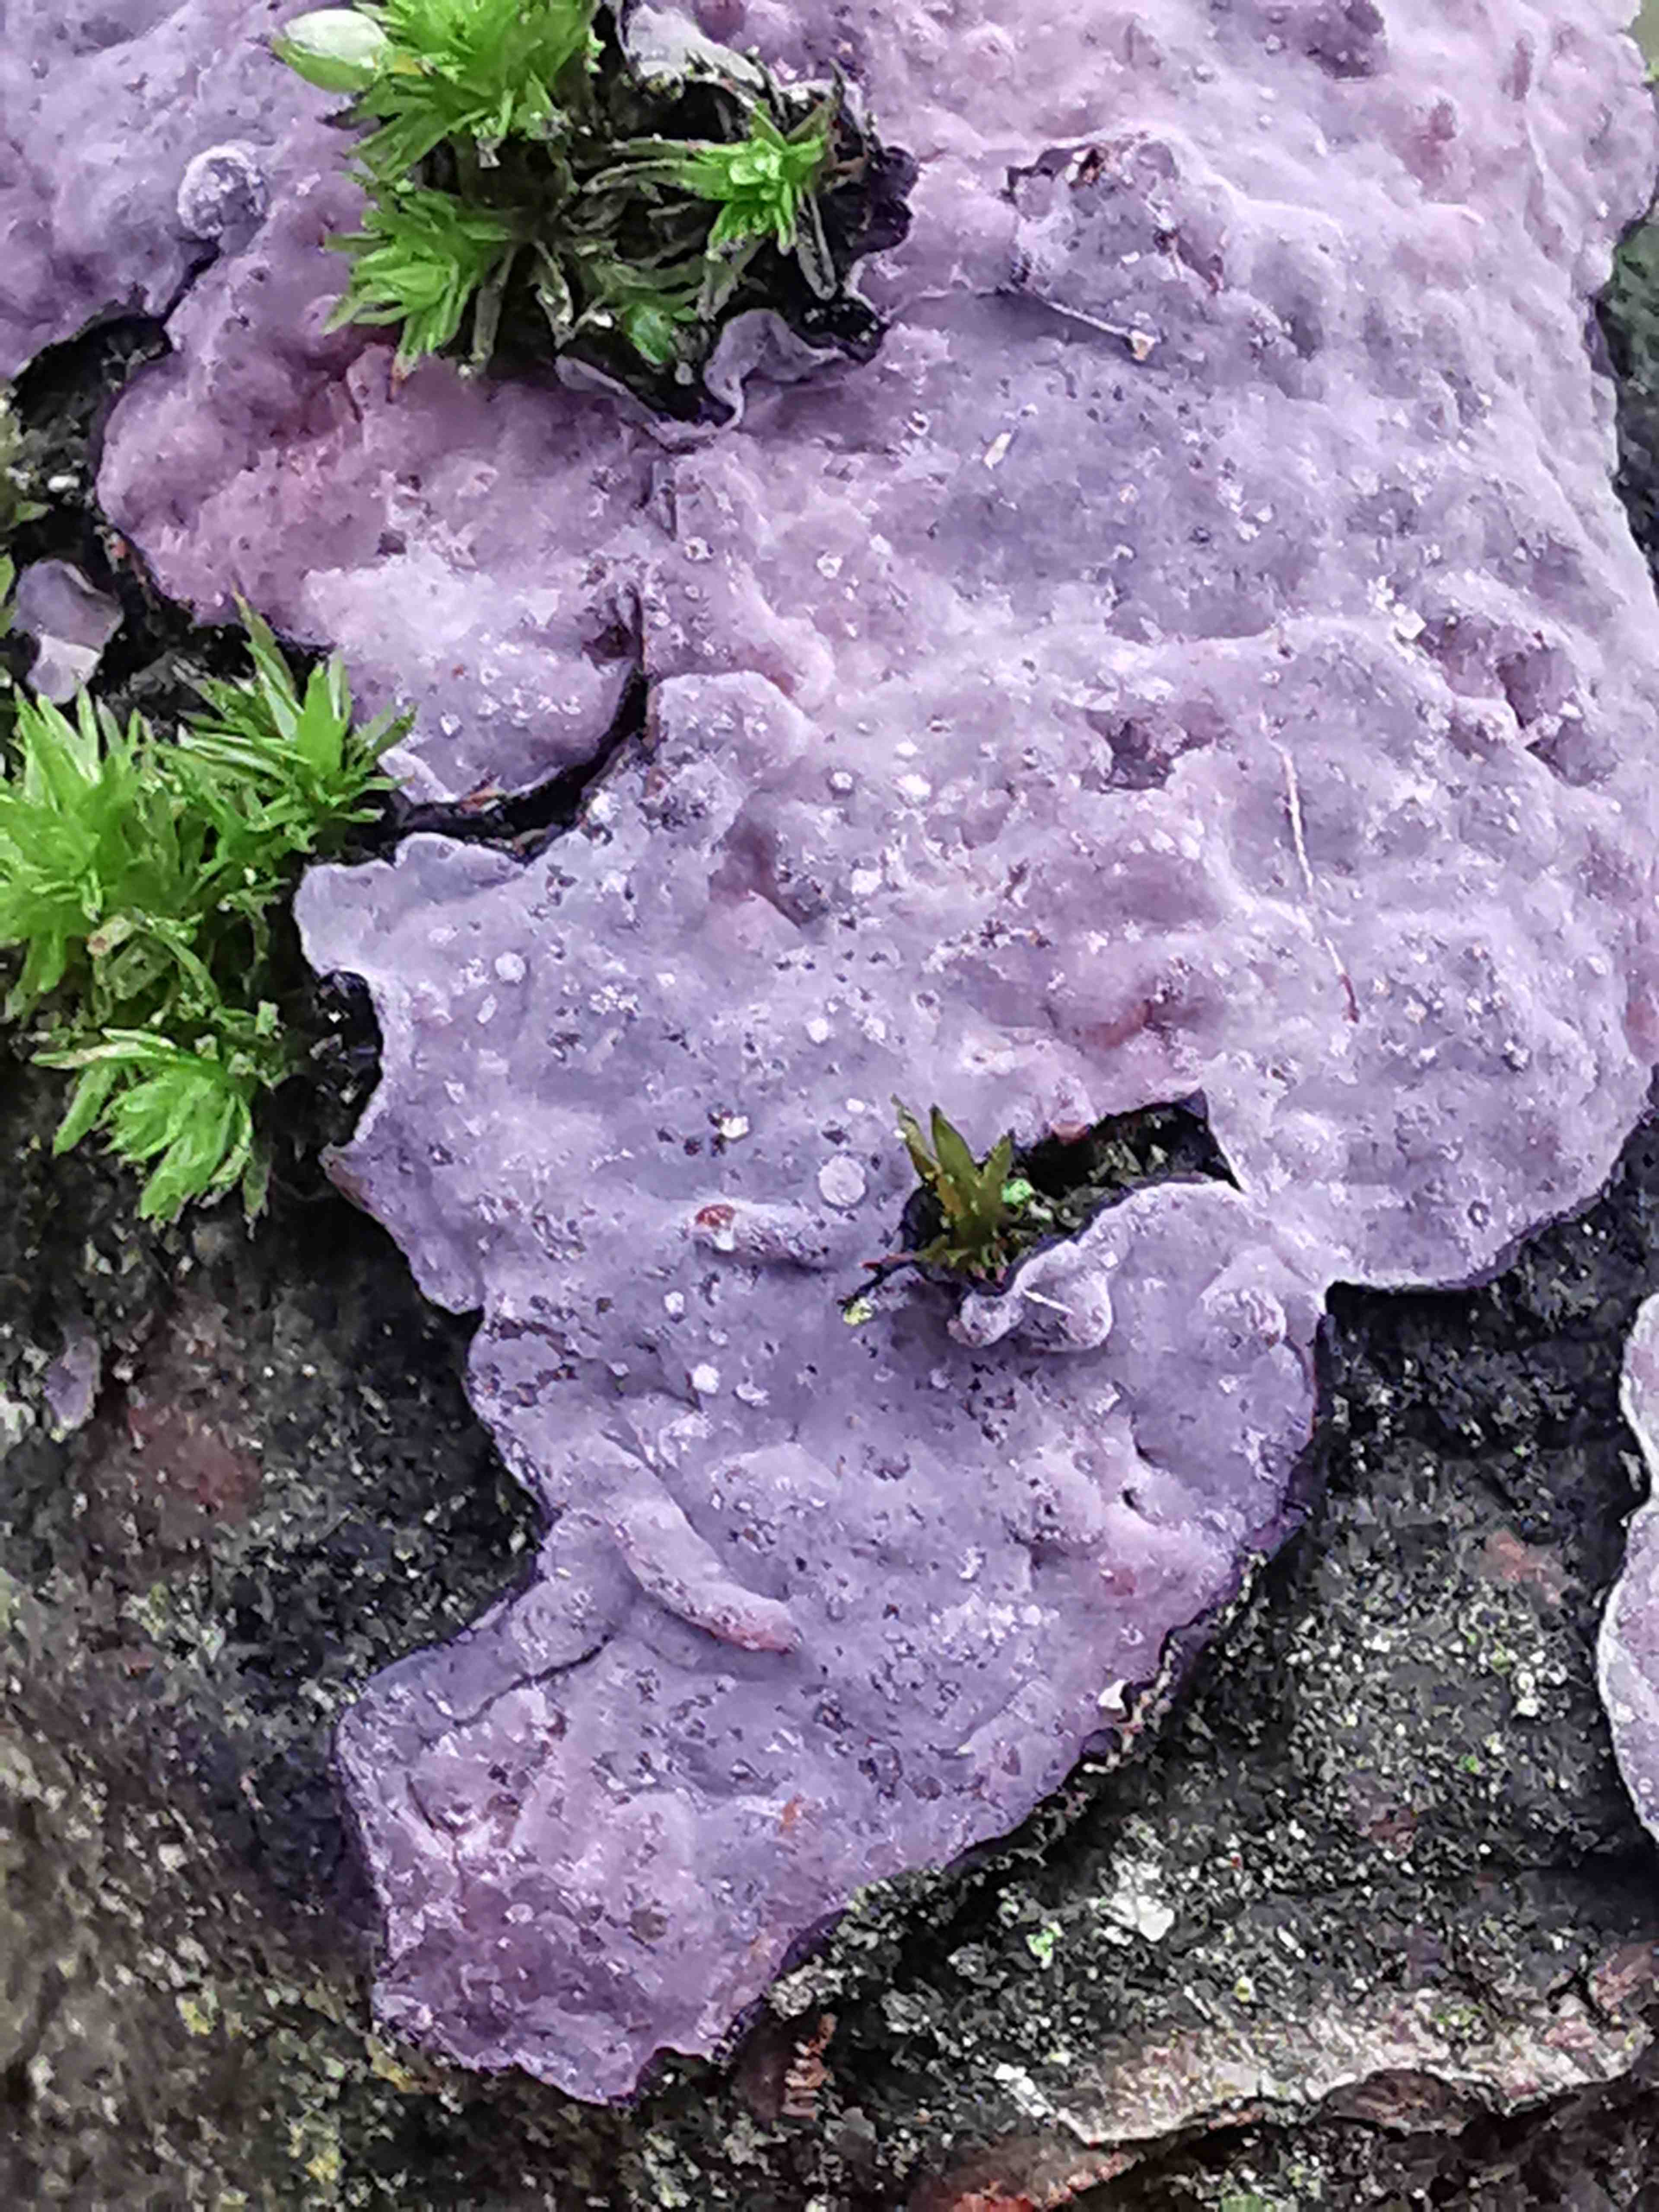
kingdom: Fungi
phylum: Basidiomycota
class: Agaricomycetes
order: Russulales
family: Peniophoraceae
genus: Peniophora
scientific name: Peniophora quercina
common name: ege-voksskind
